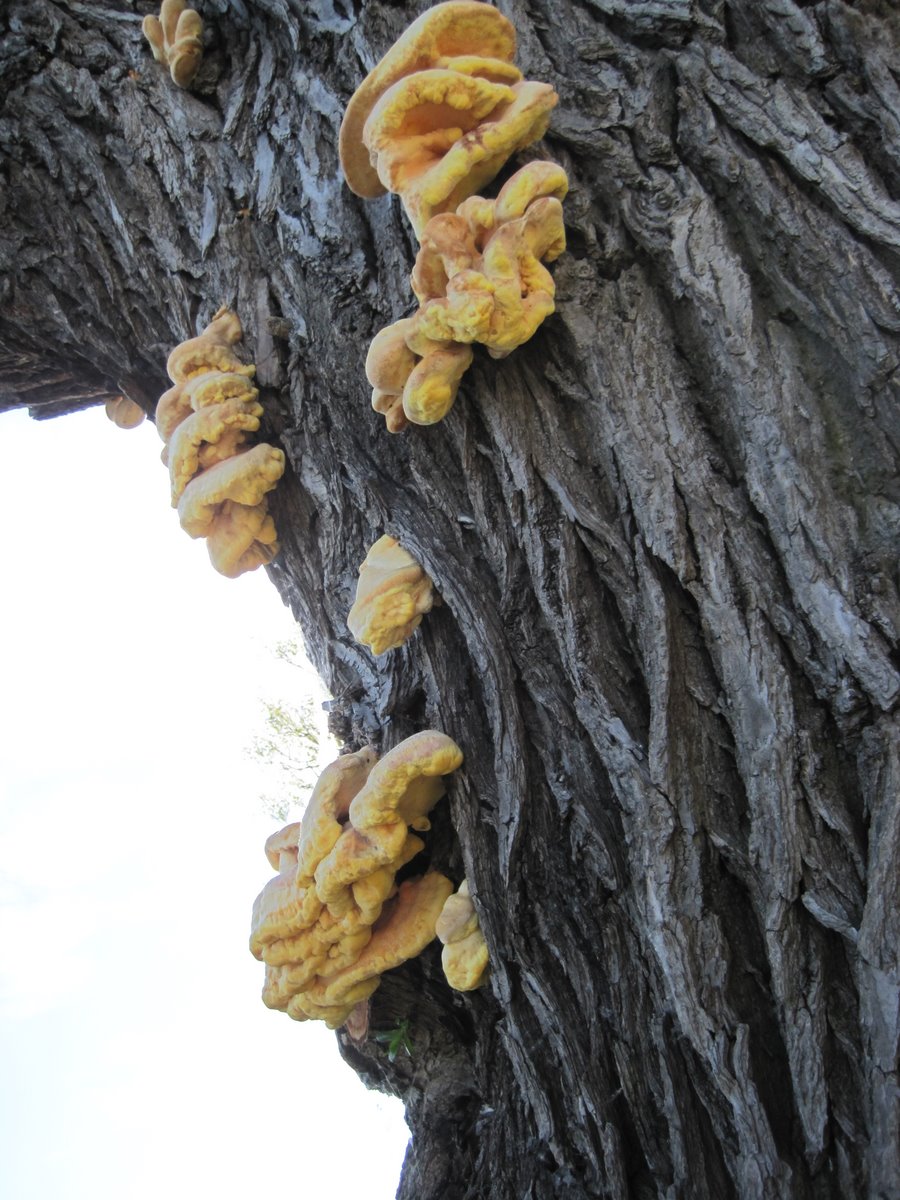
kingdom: Fungi
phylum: Basidiomycota
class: Agaricomycetes
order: Polyporales
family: Laetiporaceae
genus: Laetiporus
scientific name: Laetiporus sulphureus
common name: svovlporesvamp
